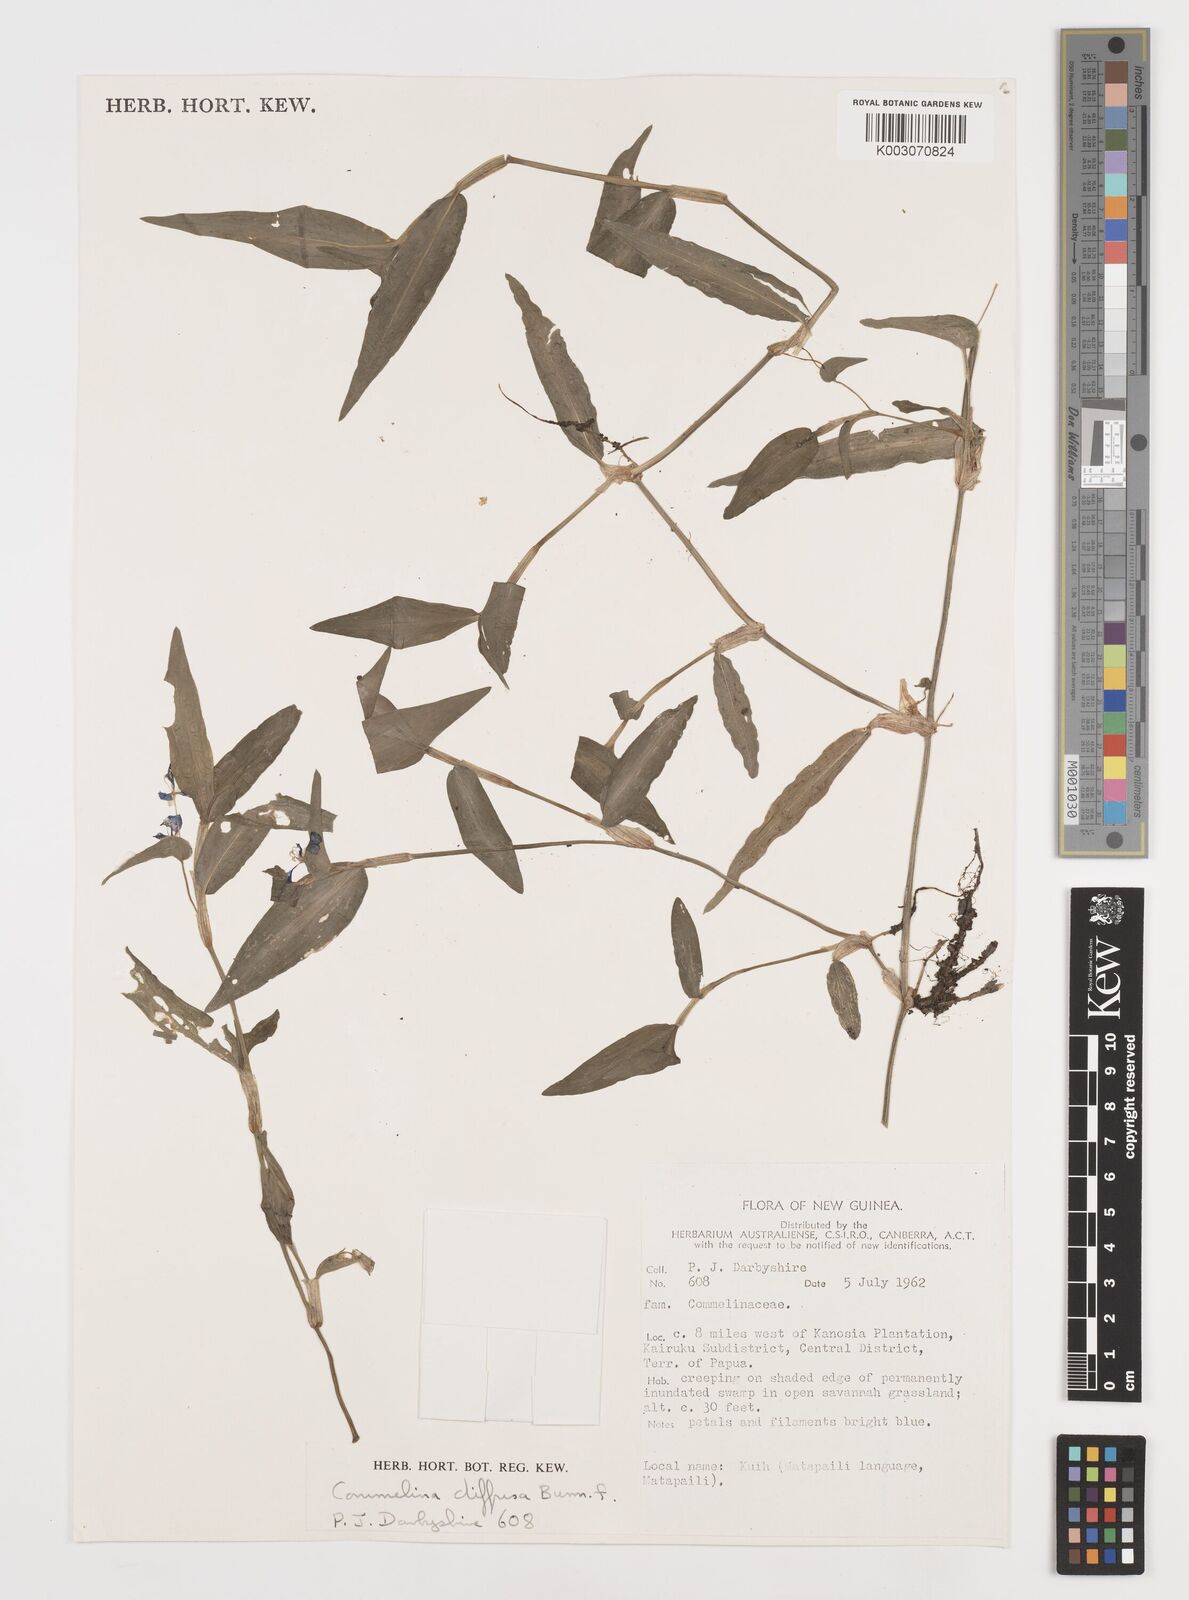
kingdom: Plantae
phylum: Tracheophyta
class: Liliopsida
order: Commelinales
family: Commelinaceae
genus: Commelina
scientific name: Commelina diffusa
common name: Climbing dayflower
